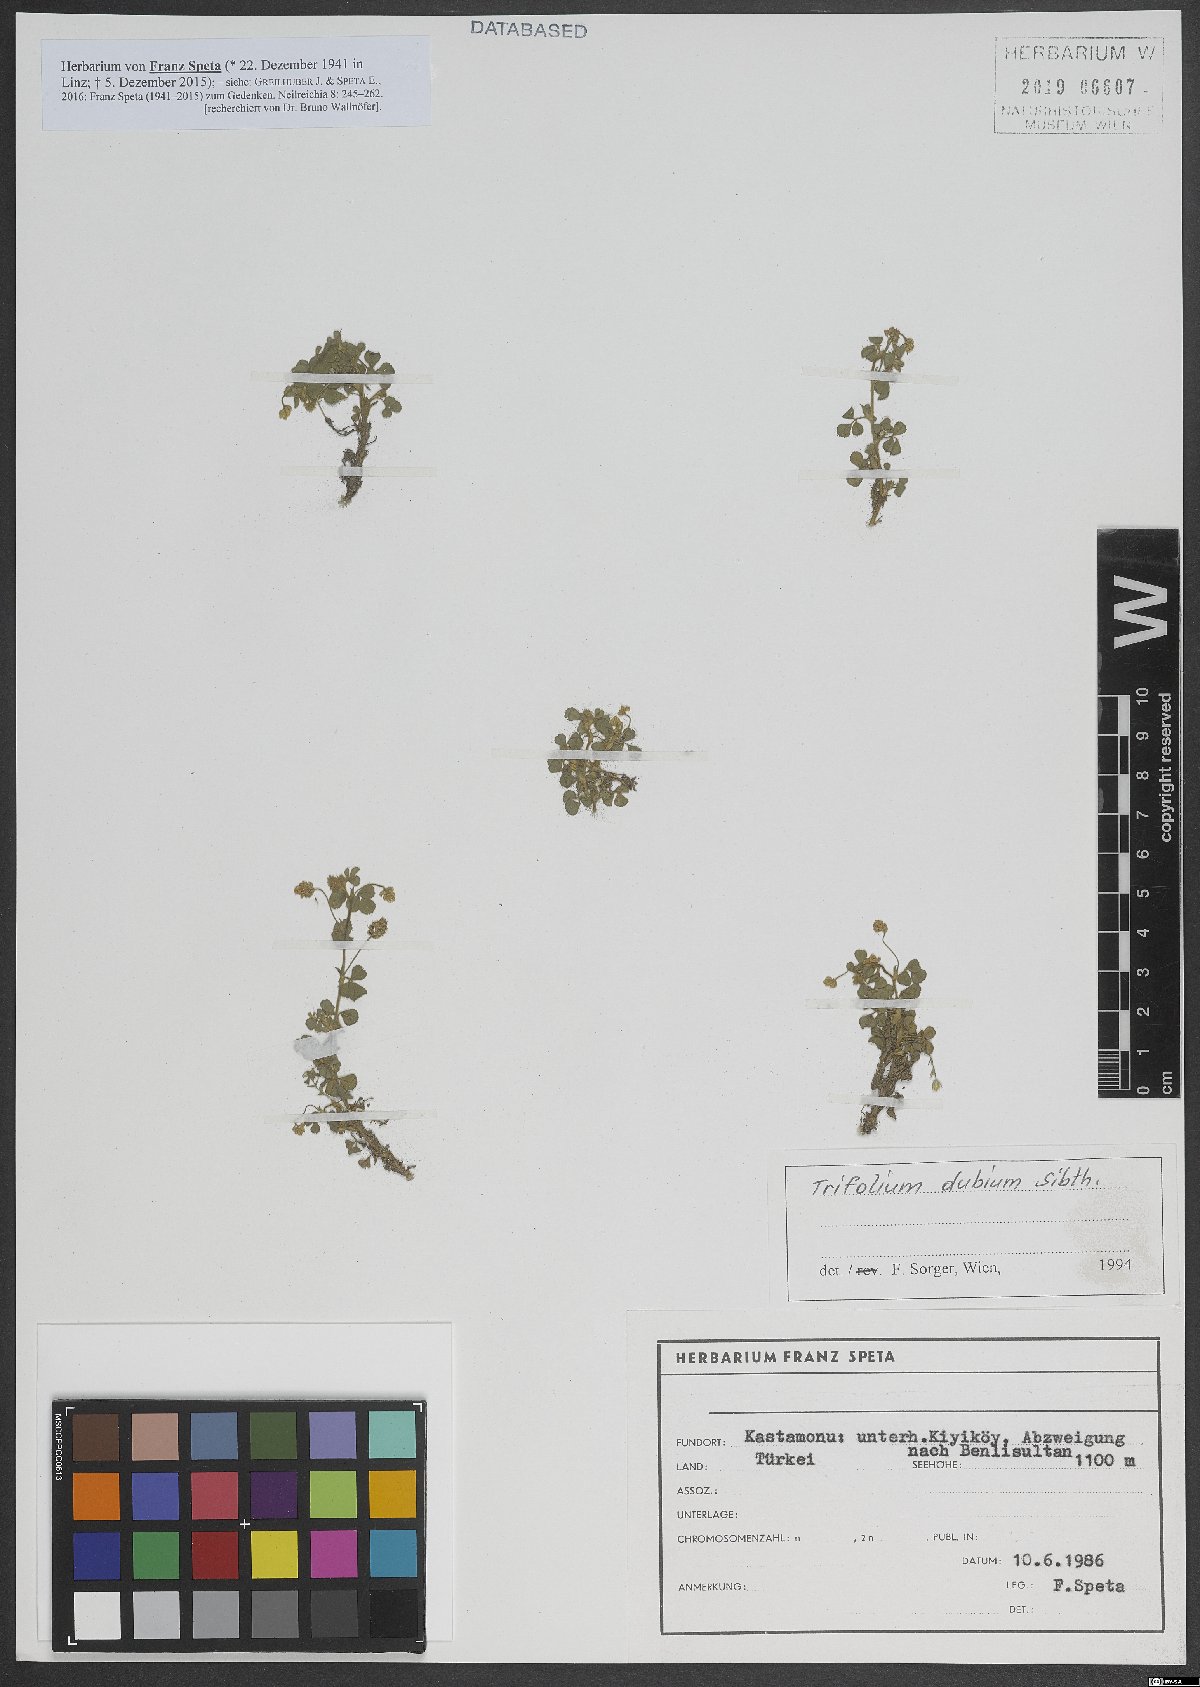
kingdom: Plantae
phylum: Tracheophyta
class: Magnoliopsida
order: Fabales
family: Fabaceae
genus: Trifolium
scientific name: Trifolium dubium
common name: Suckling clover
